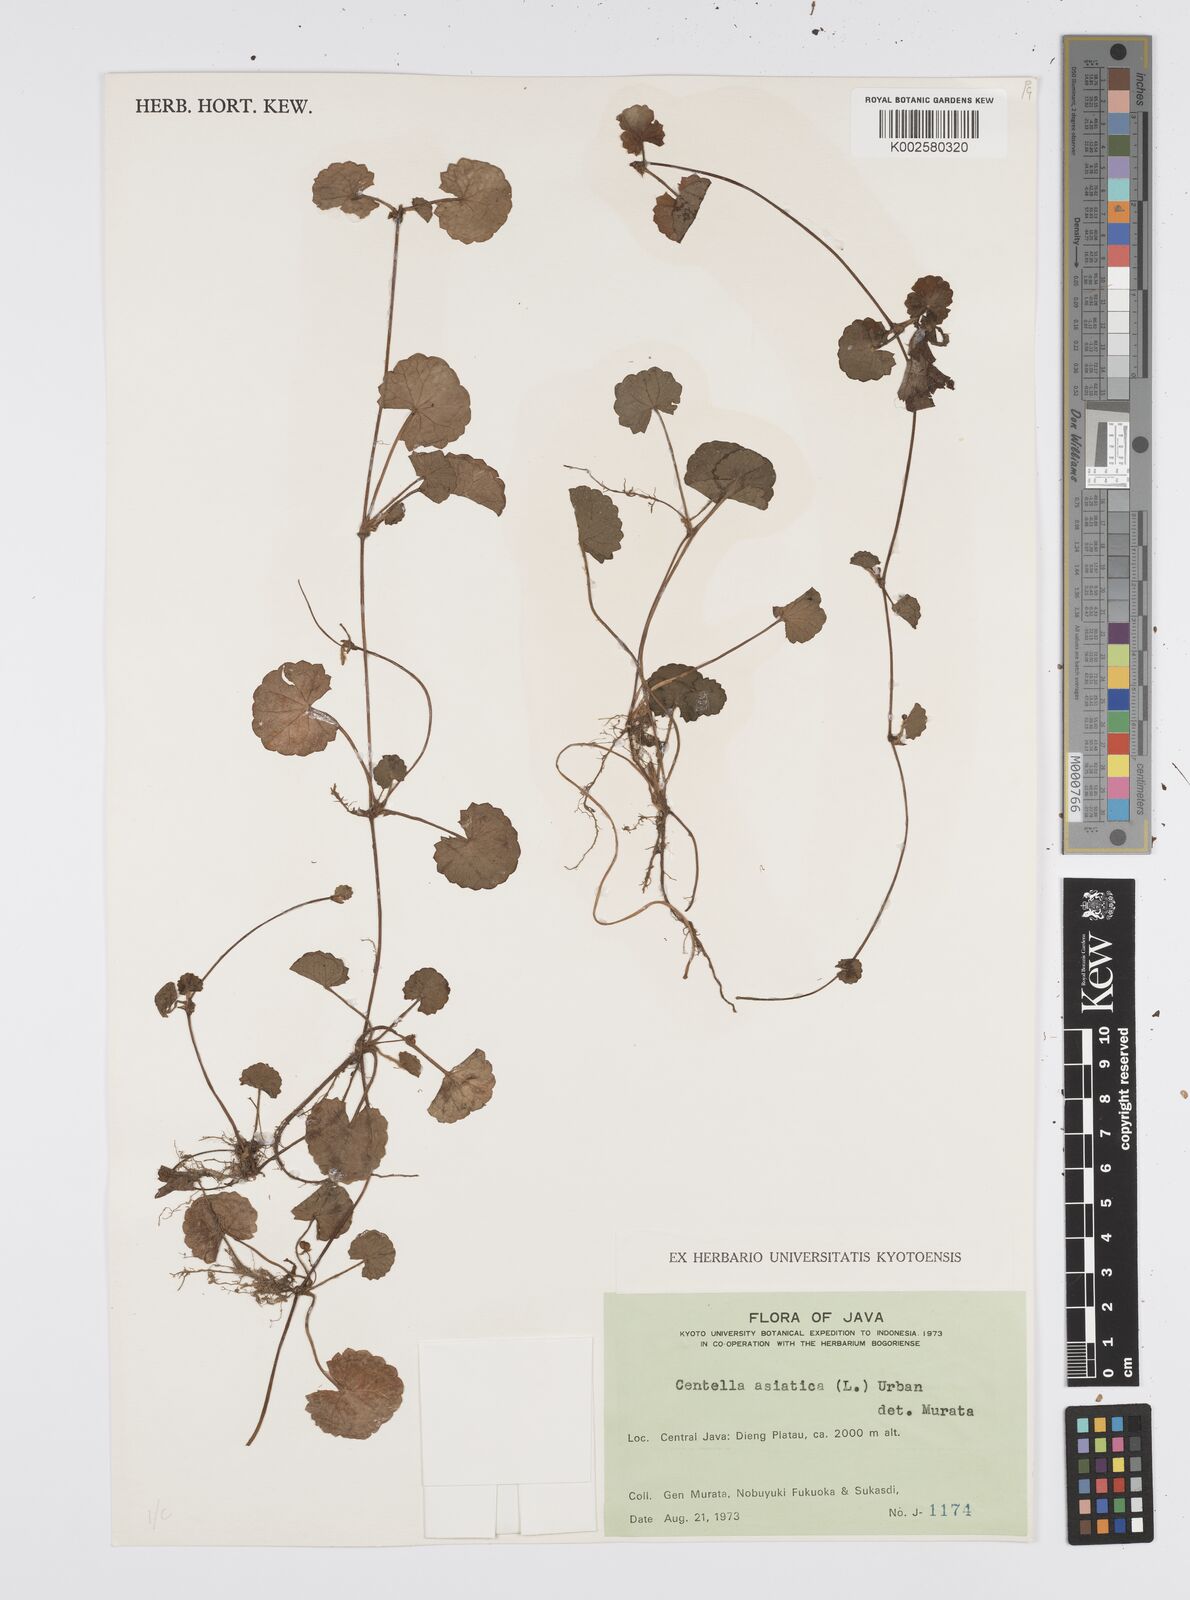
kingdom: Plantae
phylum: Tracheophyta
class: Magnoliopsida
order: Apiales
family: Apiaceae
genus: Centella
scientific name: Centella asiatica
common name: Spadeleaf
